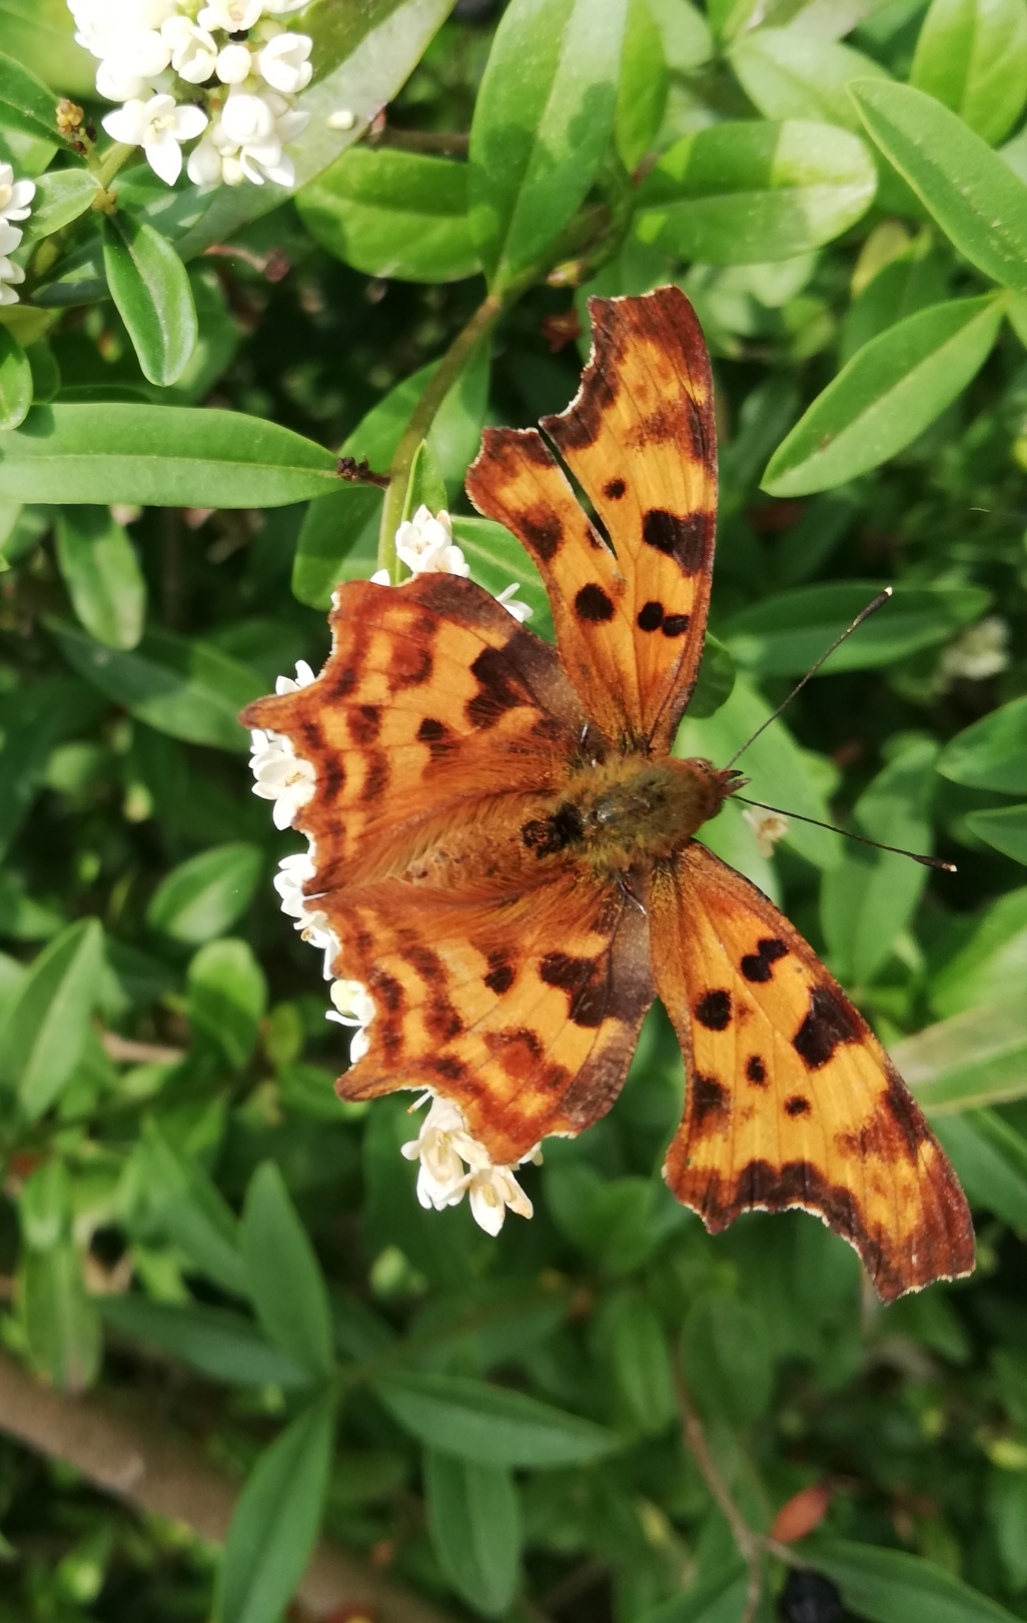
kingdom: Animalia
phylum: Arthropoda
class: Insecta
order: Lepidoptera
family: Nymphalidae
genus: Polygonia
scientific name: Polygonia c-album
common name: Det hvide C
